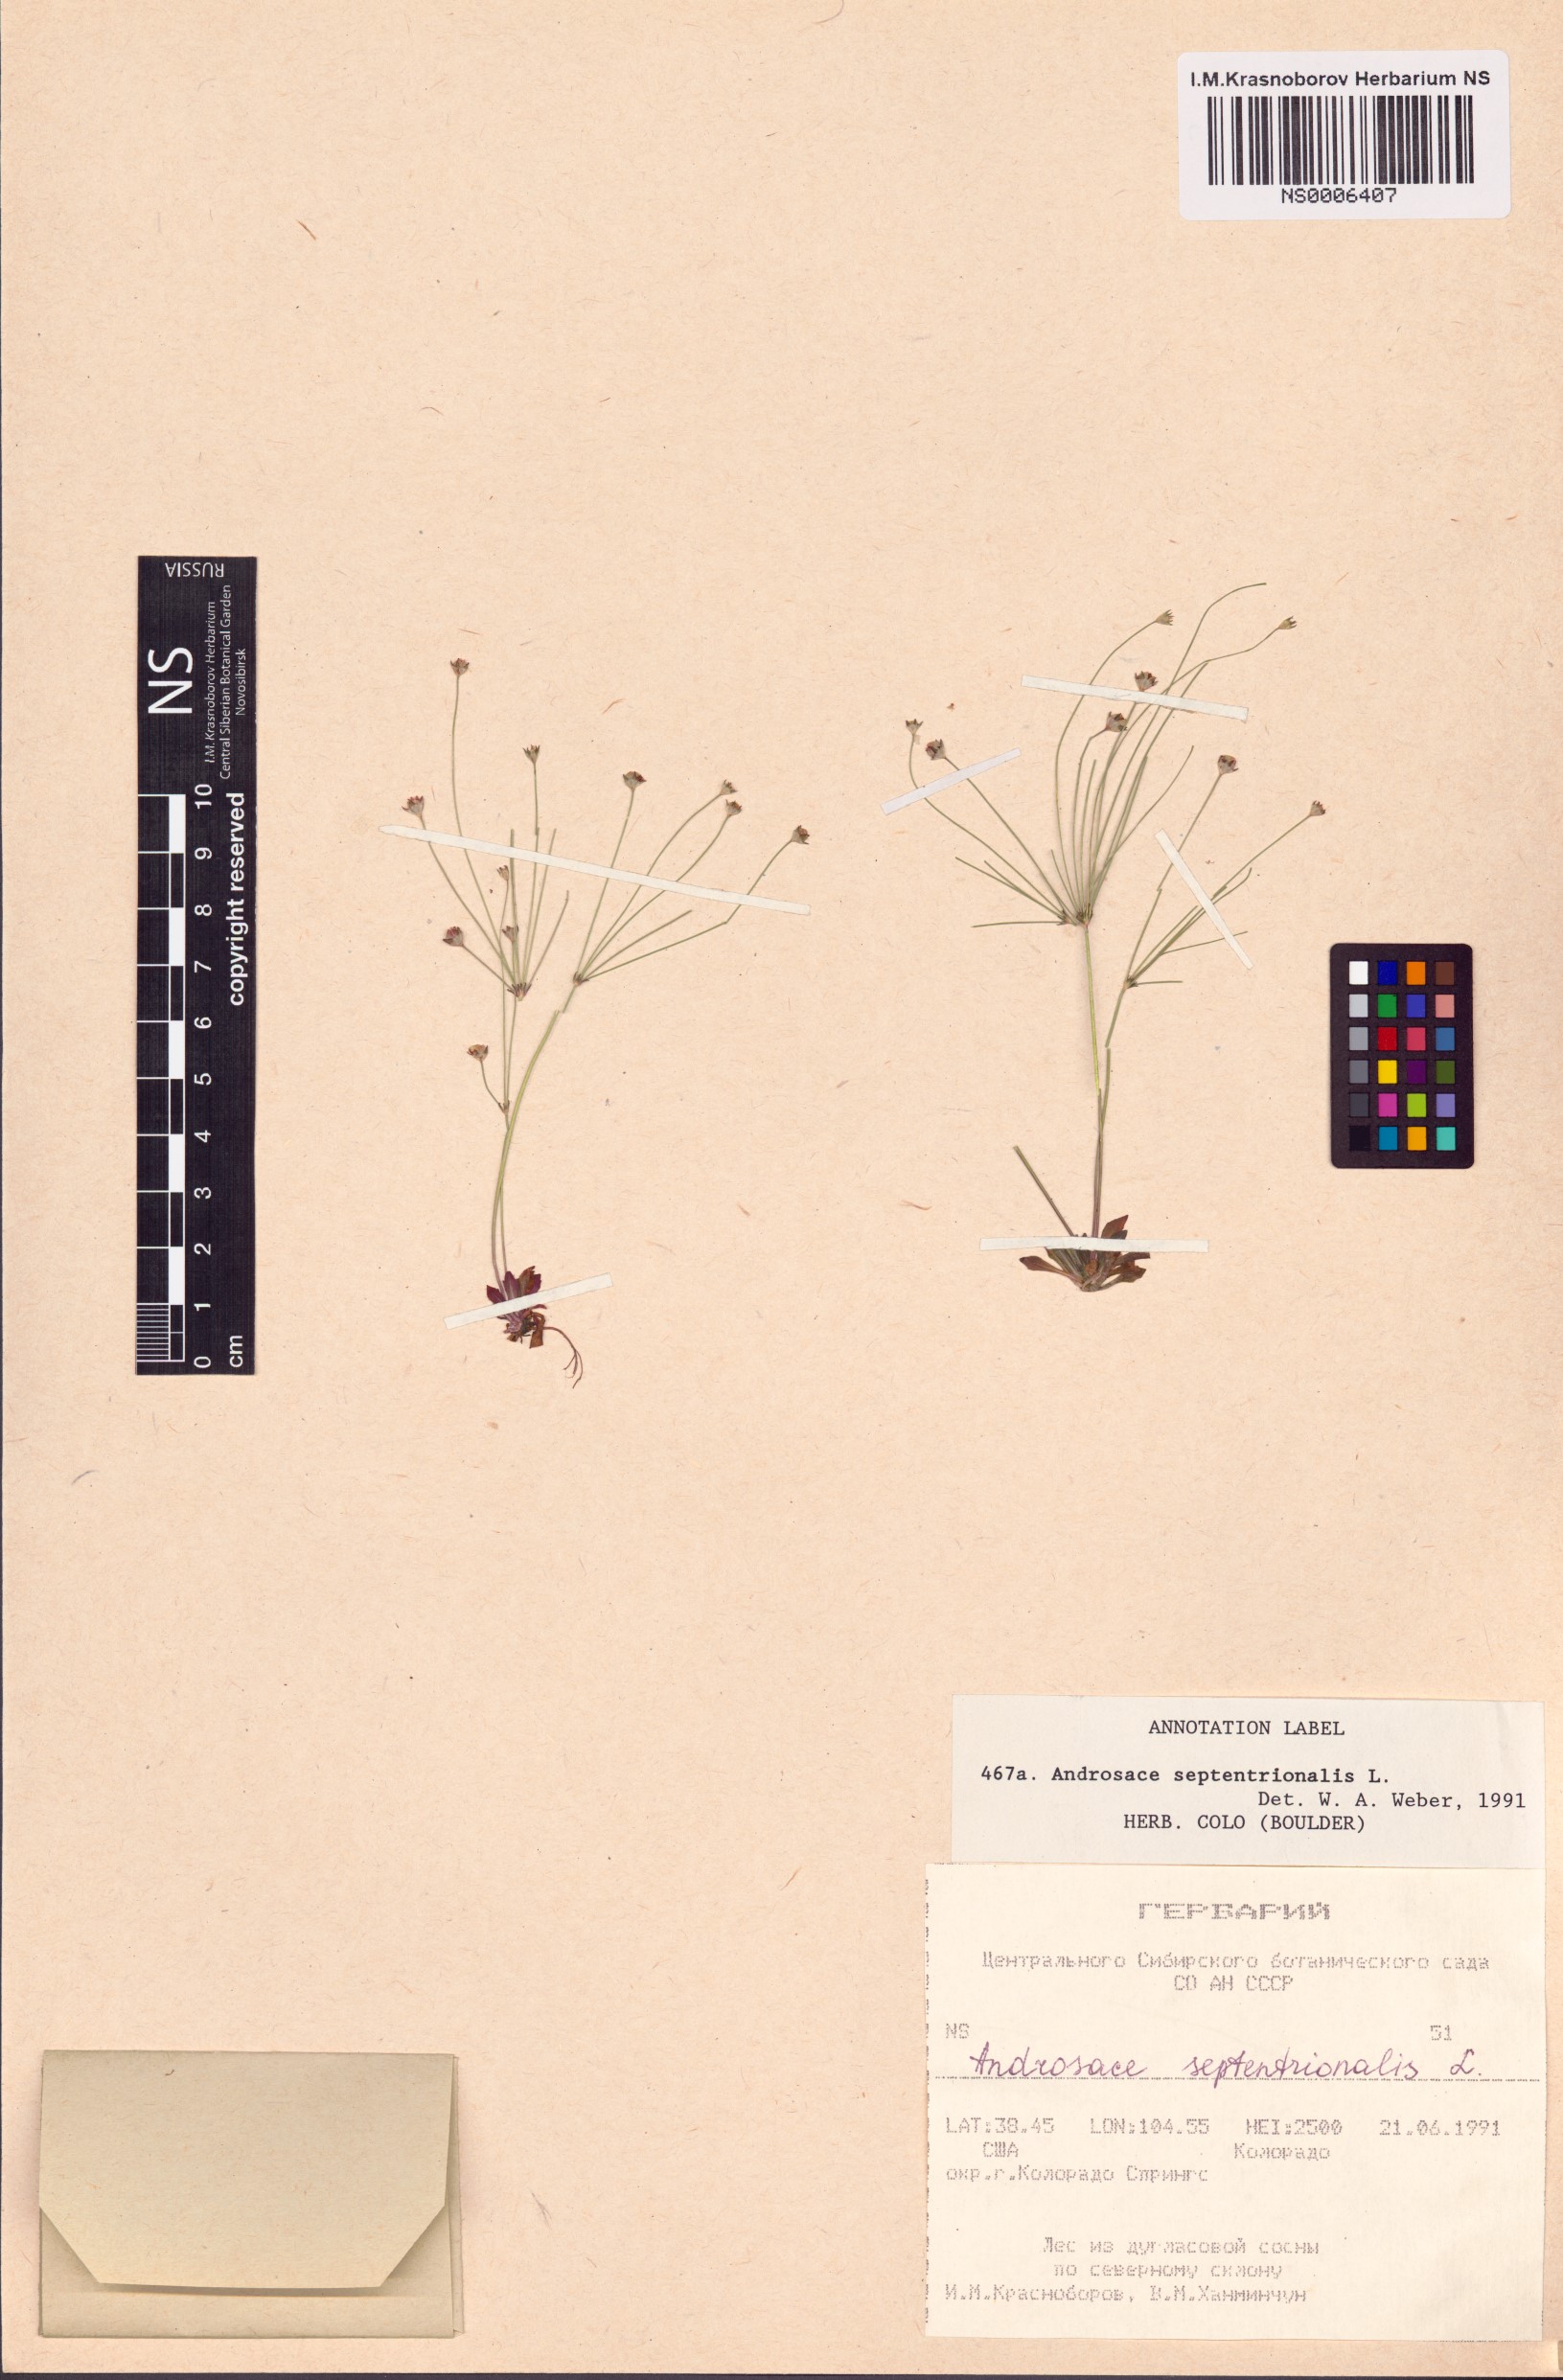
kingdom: Plantae
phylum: Tracheophyta
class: Magnoliopsida
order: Ericales
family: Primulaceae
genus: Androsace
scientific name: Androsace septentrionalis
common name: Hairy northern fairy-candelabra
